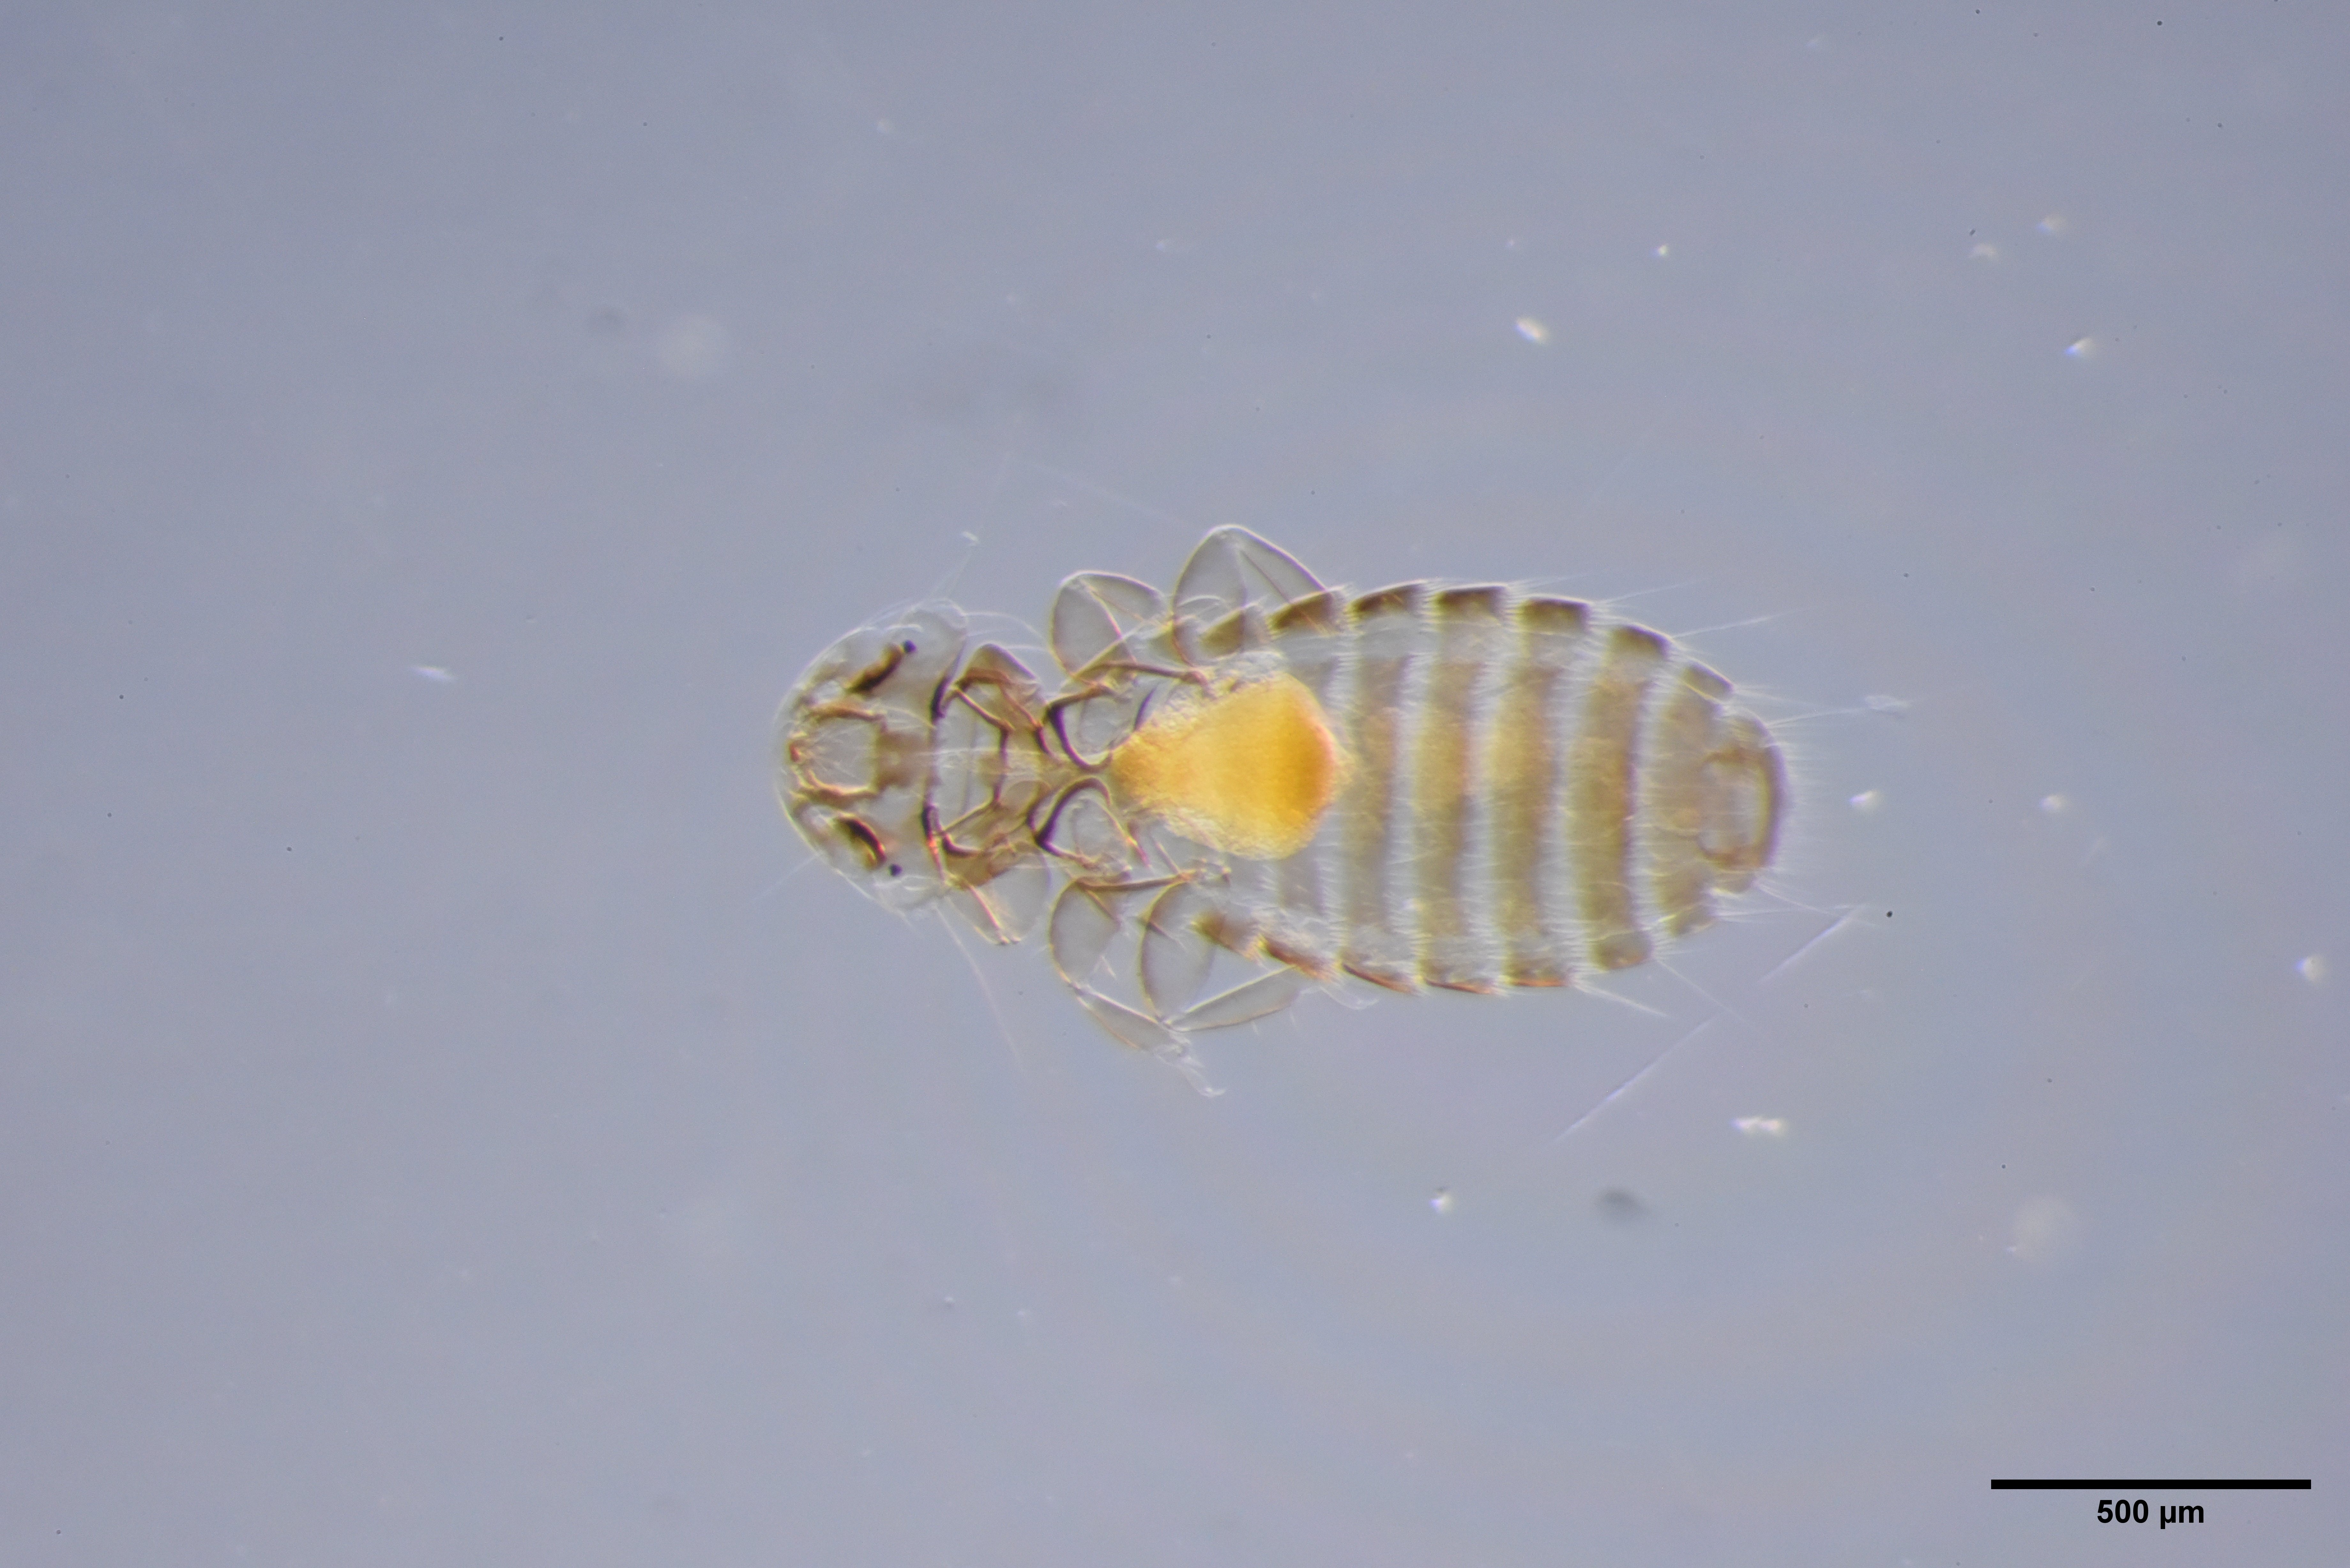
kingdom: Animalia
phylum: Arthropoda
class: Insecta
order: Psocodea
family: Menoponidae
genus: Menacanthus
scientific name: Menacanthus eurysternus
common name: Louse
